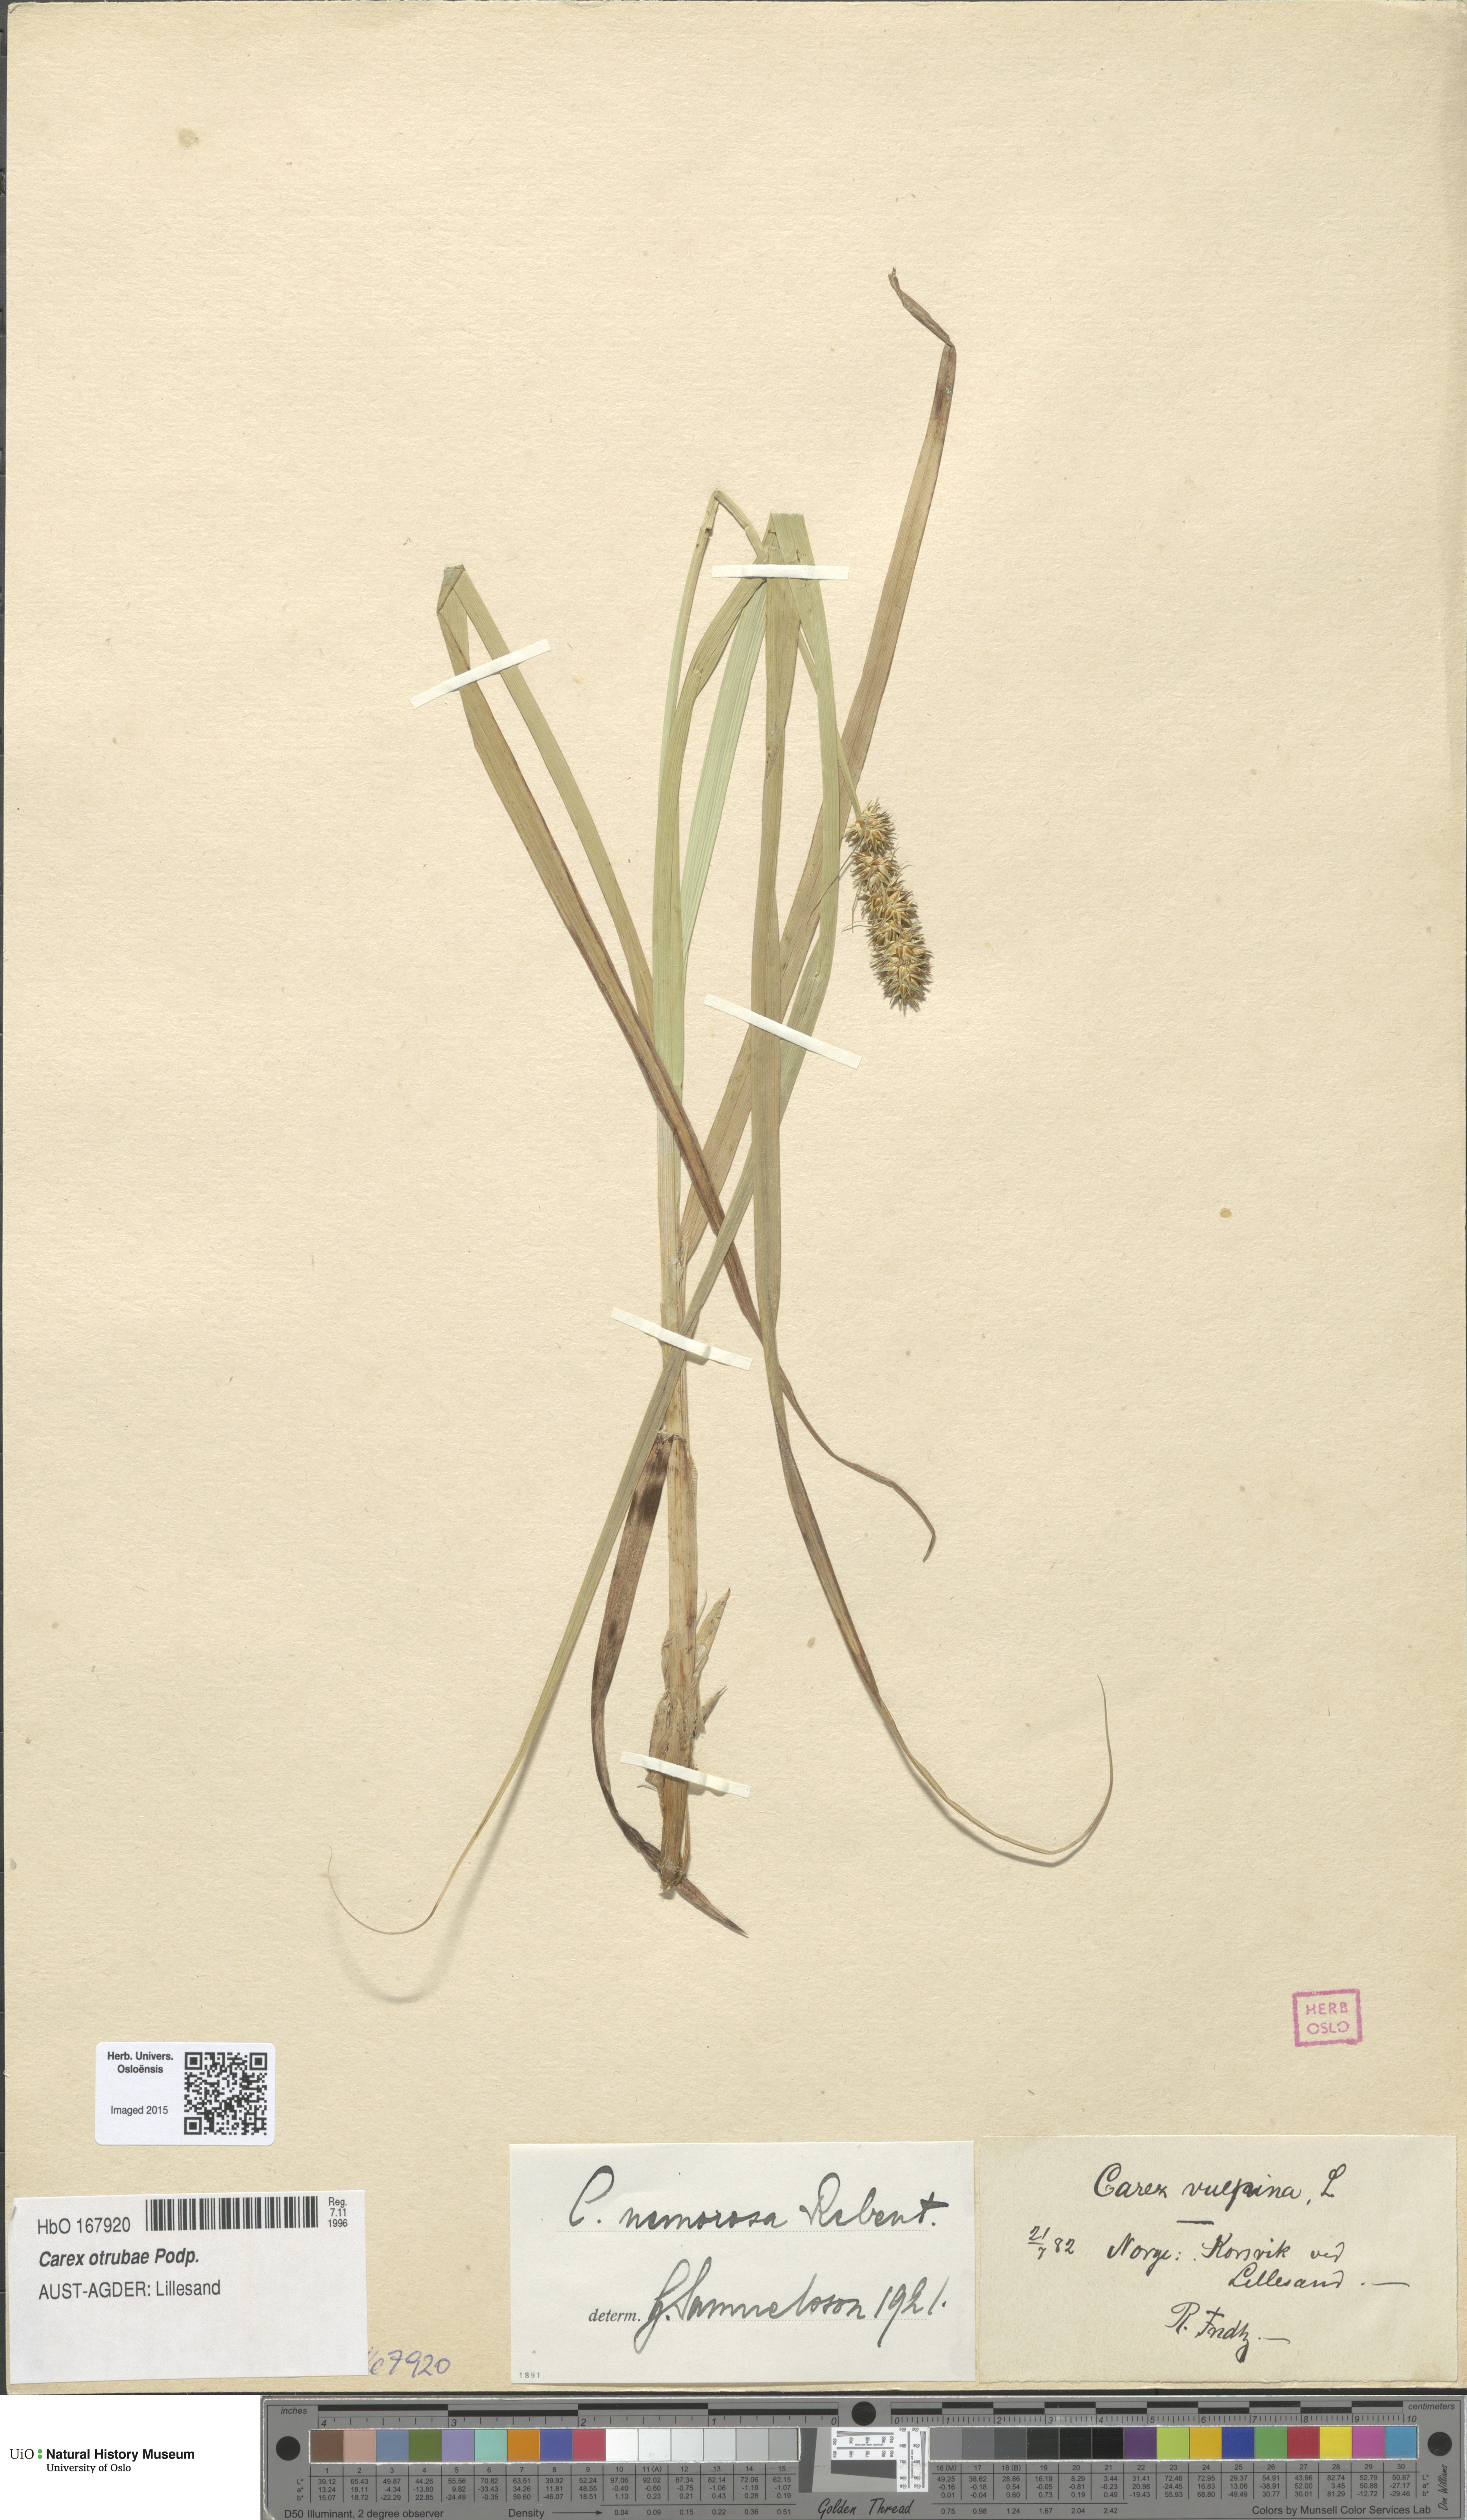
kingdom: Plantae
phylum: Tracheophyta
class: Liliopsida
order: Poales
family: Cyperaceae
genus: Carex
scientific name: Carex otrubae
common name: False fox-sedge
